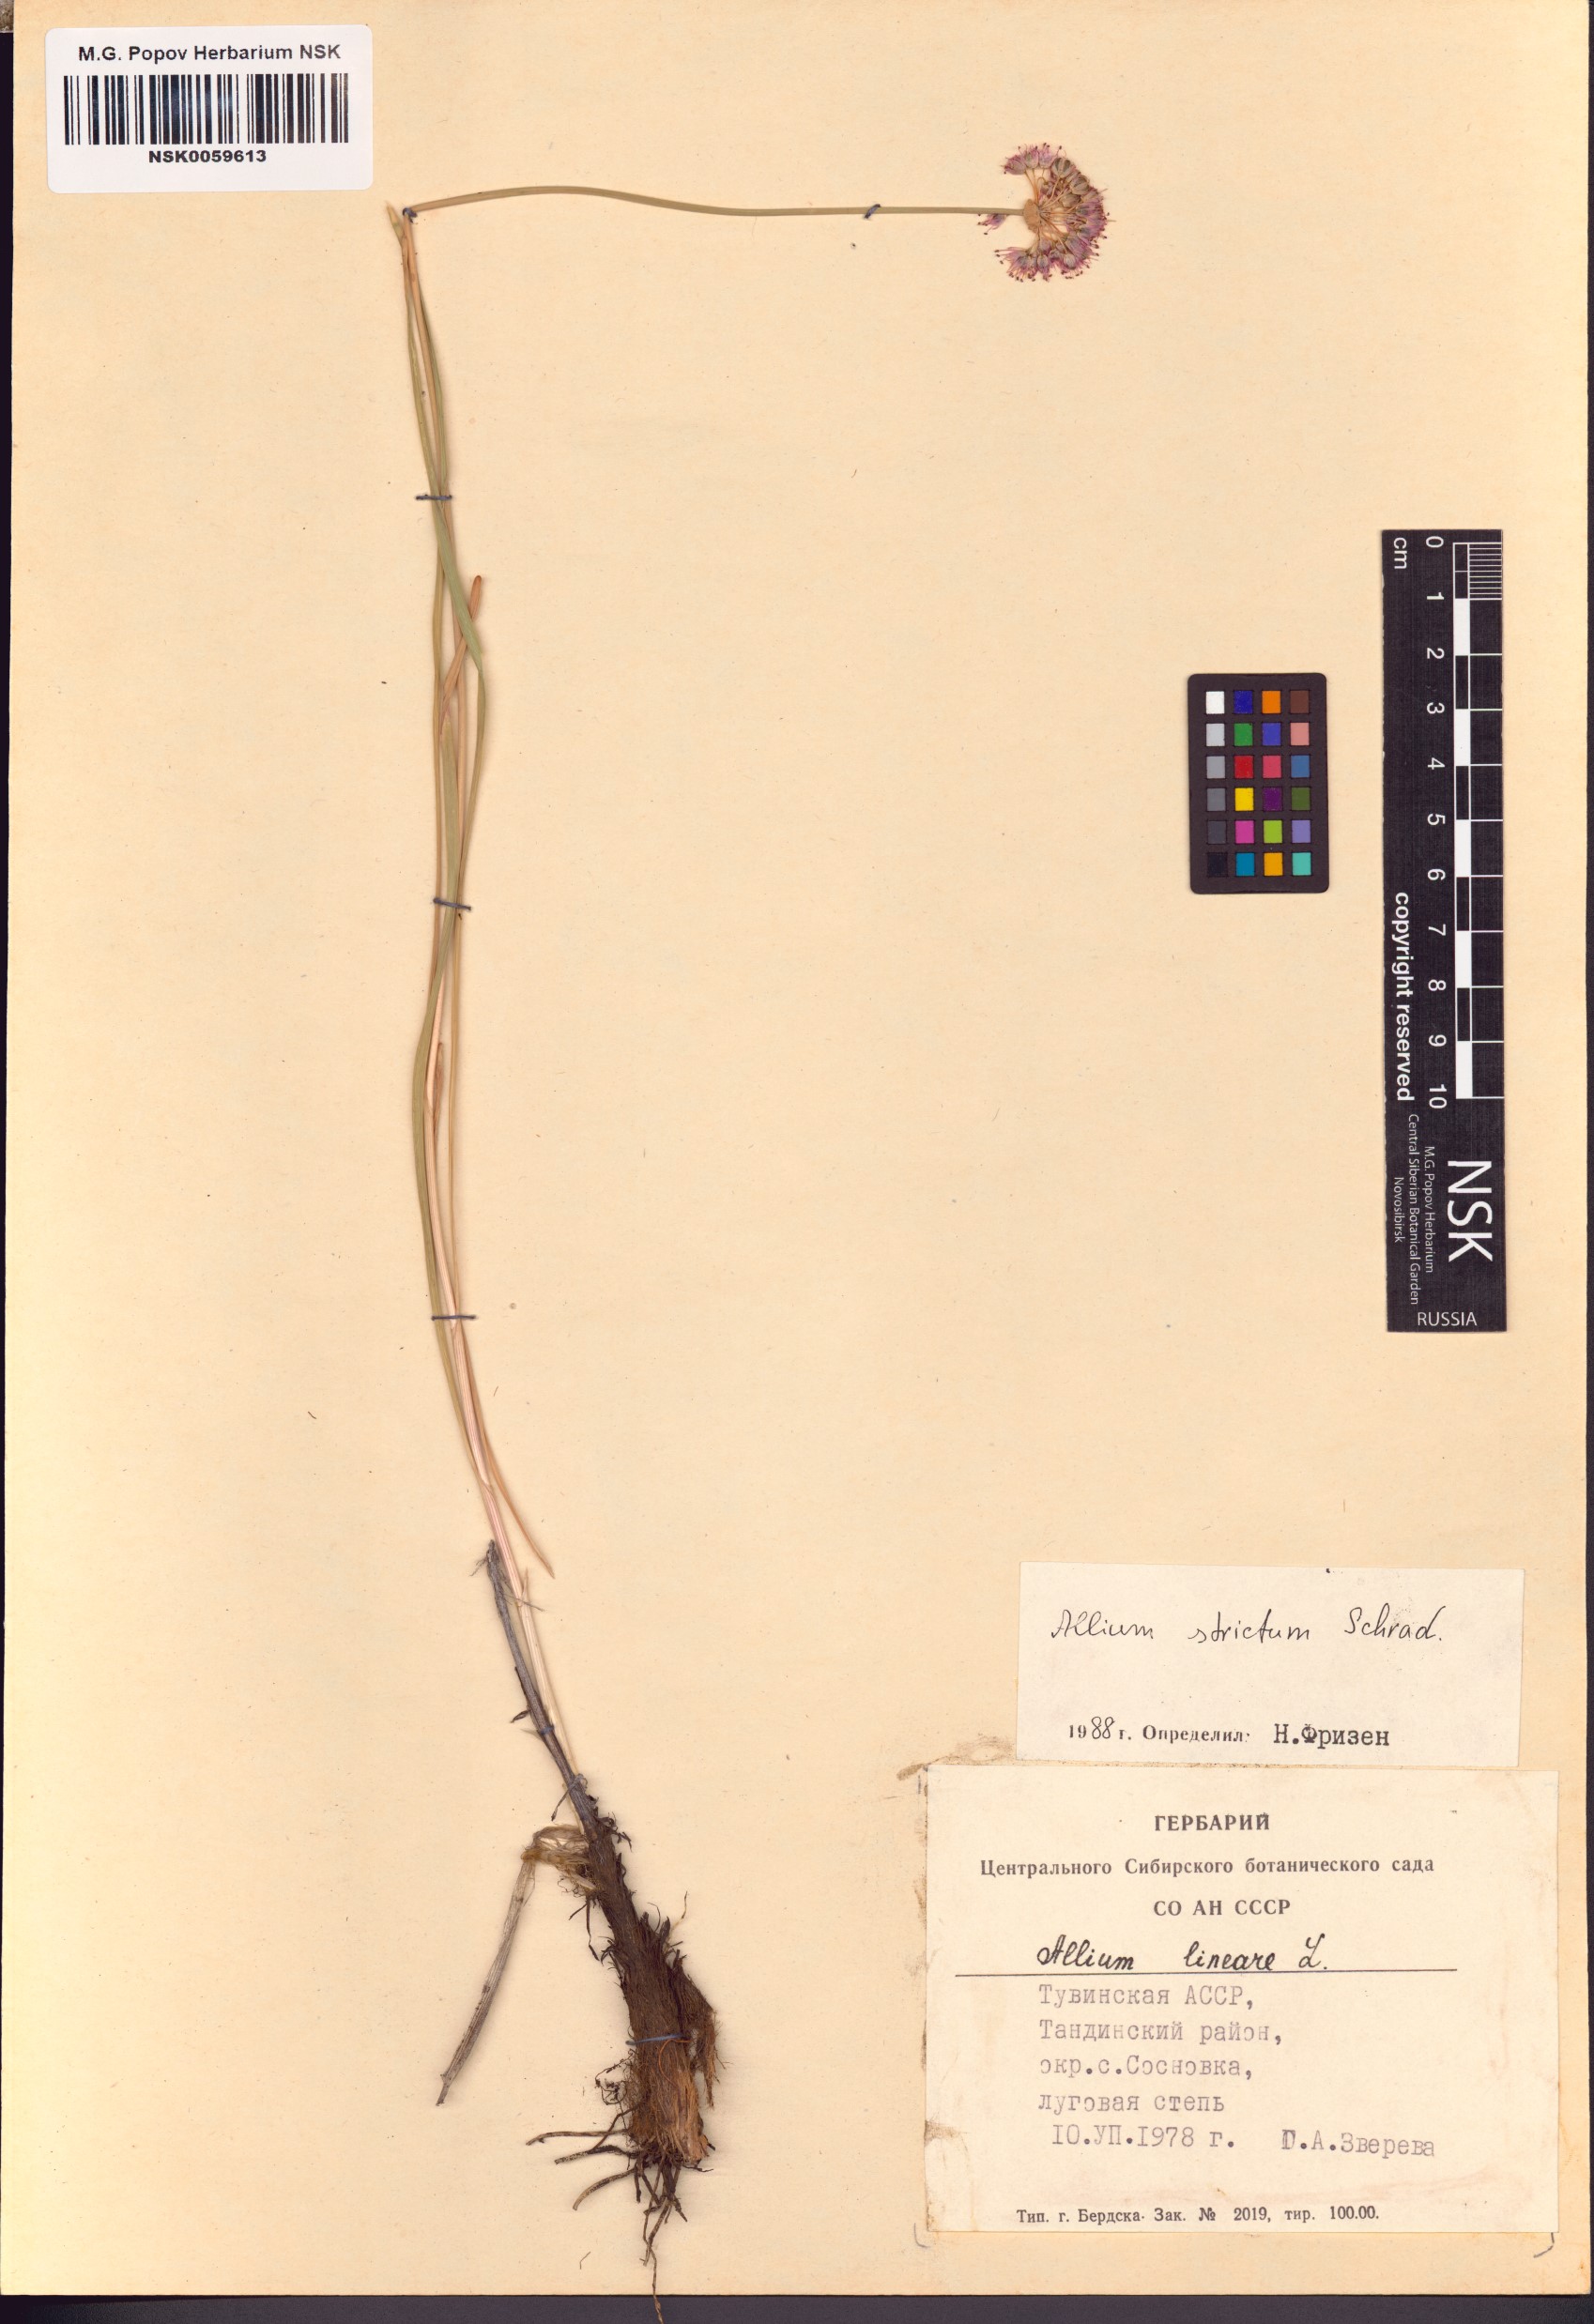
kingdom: Plantae
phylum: Tracheophyta
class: Liliopsida
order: Asparagales
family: Amaryllidaceae
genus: Allium
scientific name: Allium strictum
